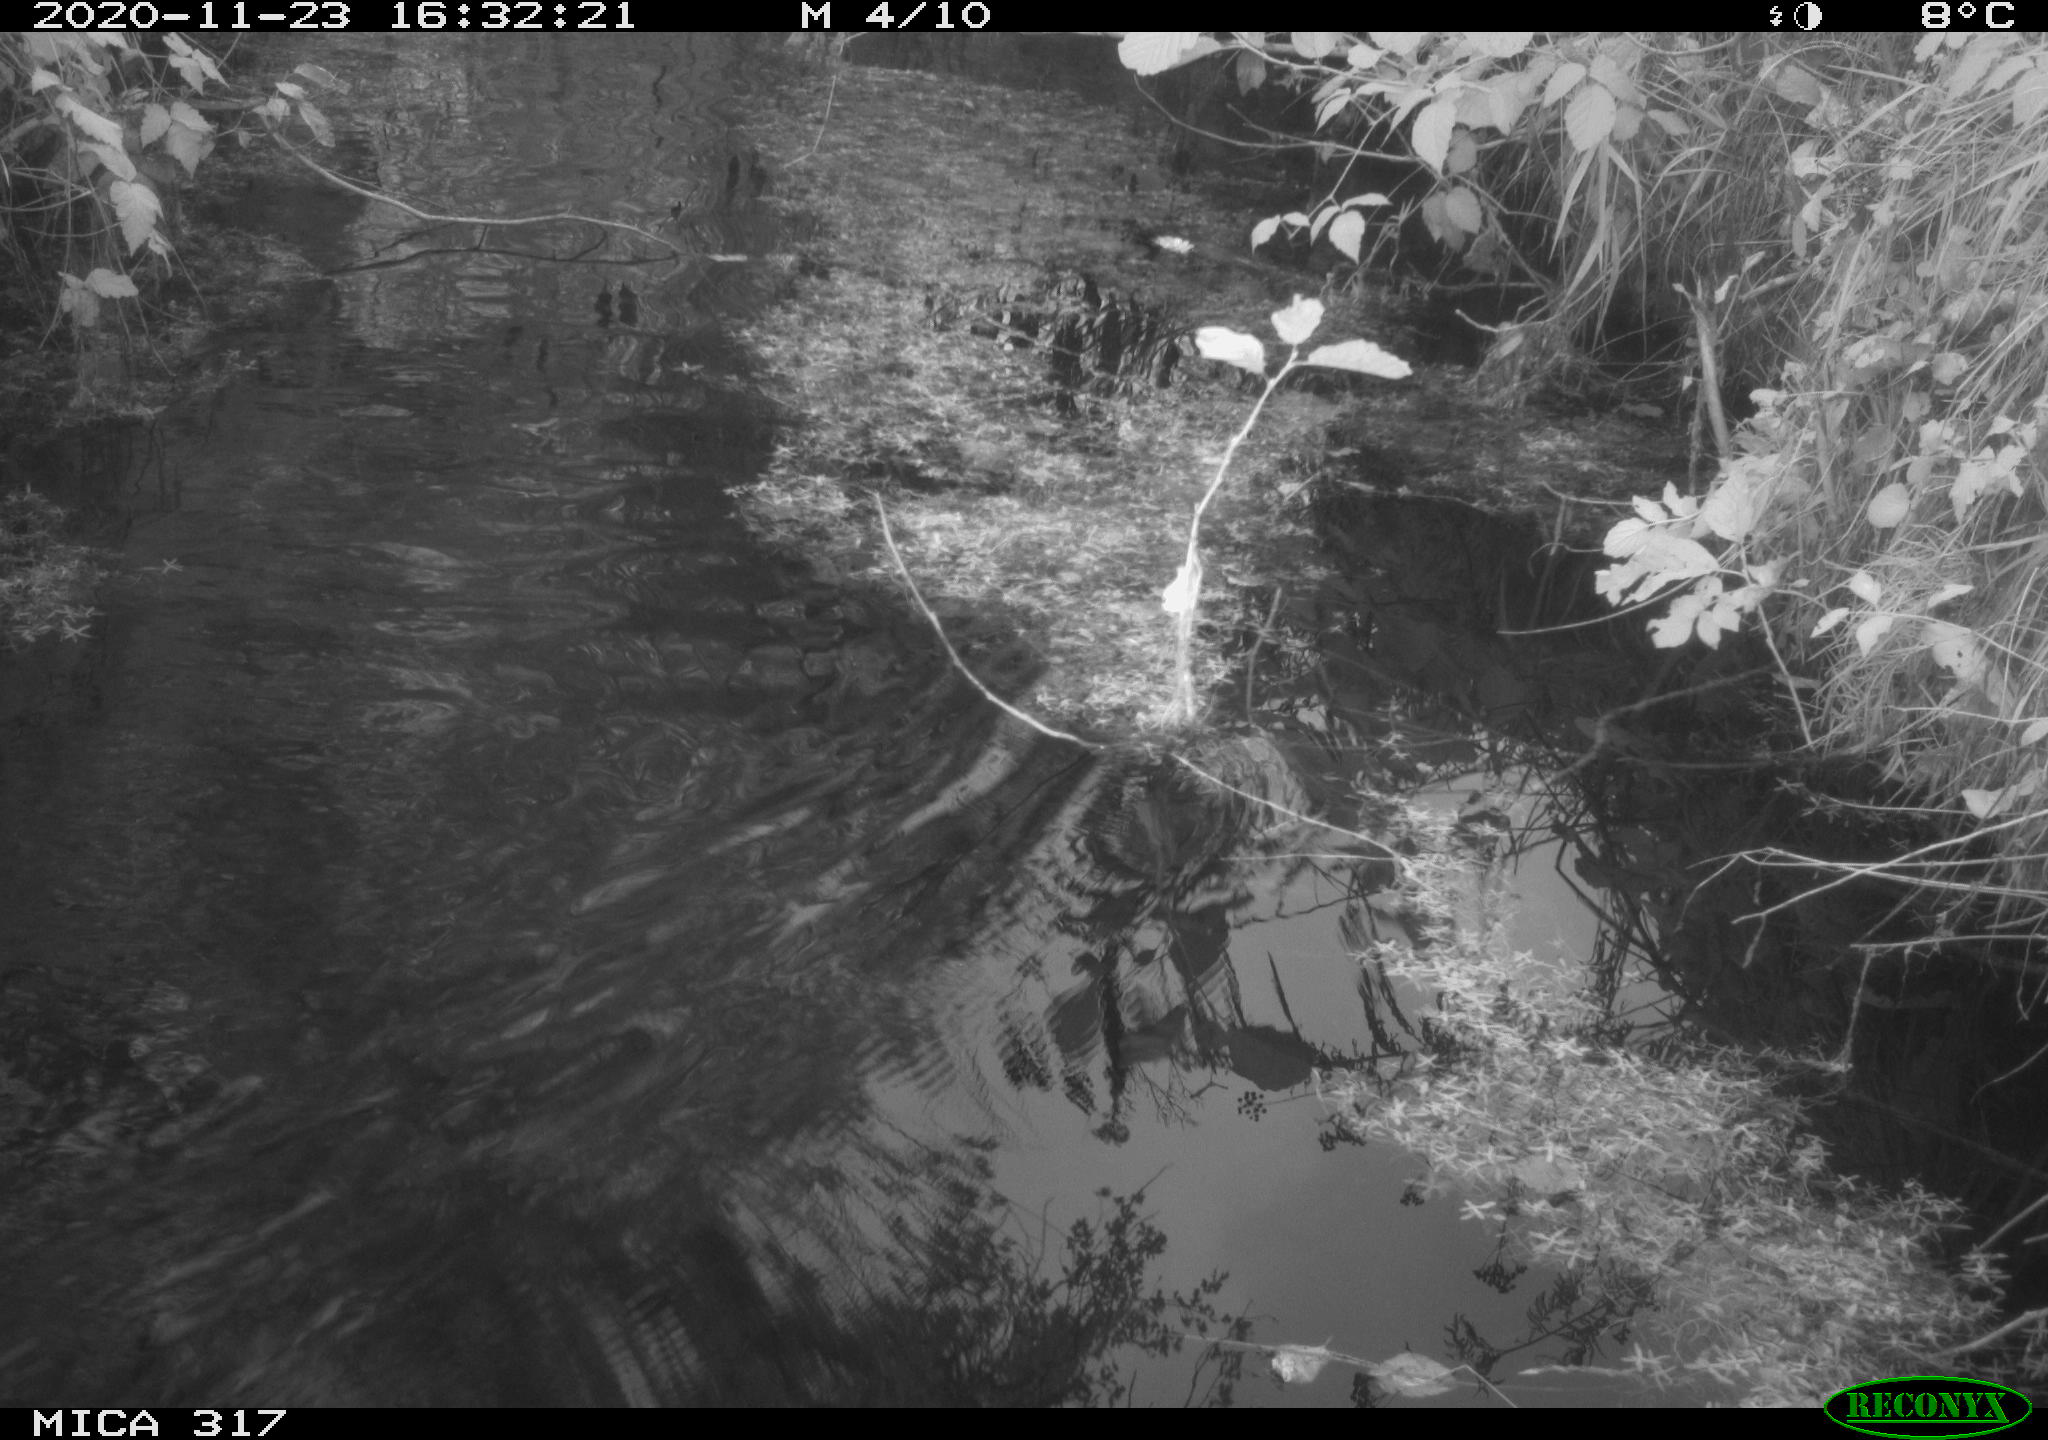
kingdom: Animalia
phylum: Chordata
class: Aves
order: Gruiformes
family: Rallidae
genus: Fulica
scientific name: Fulica atra
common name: Eurasian coot
